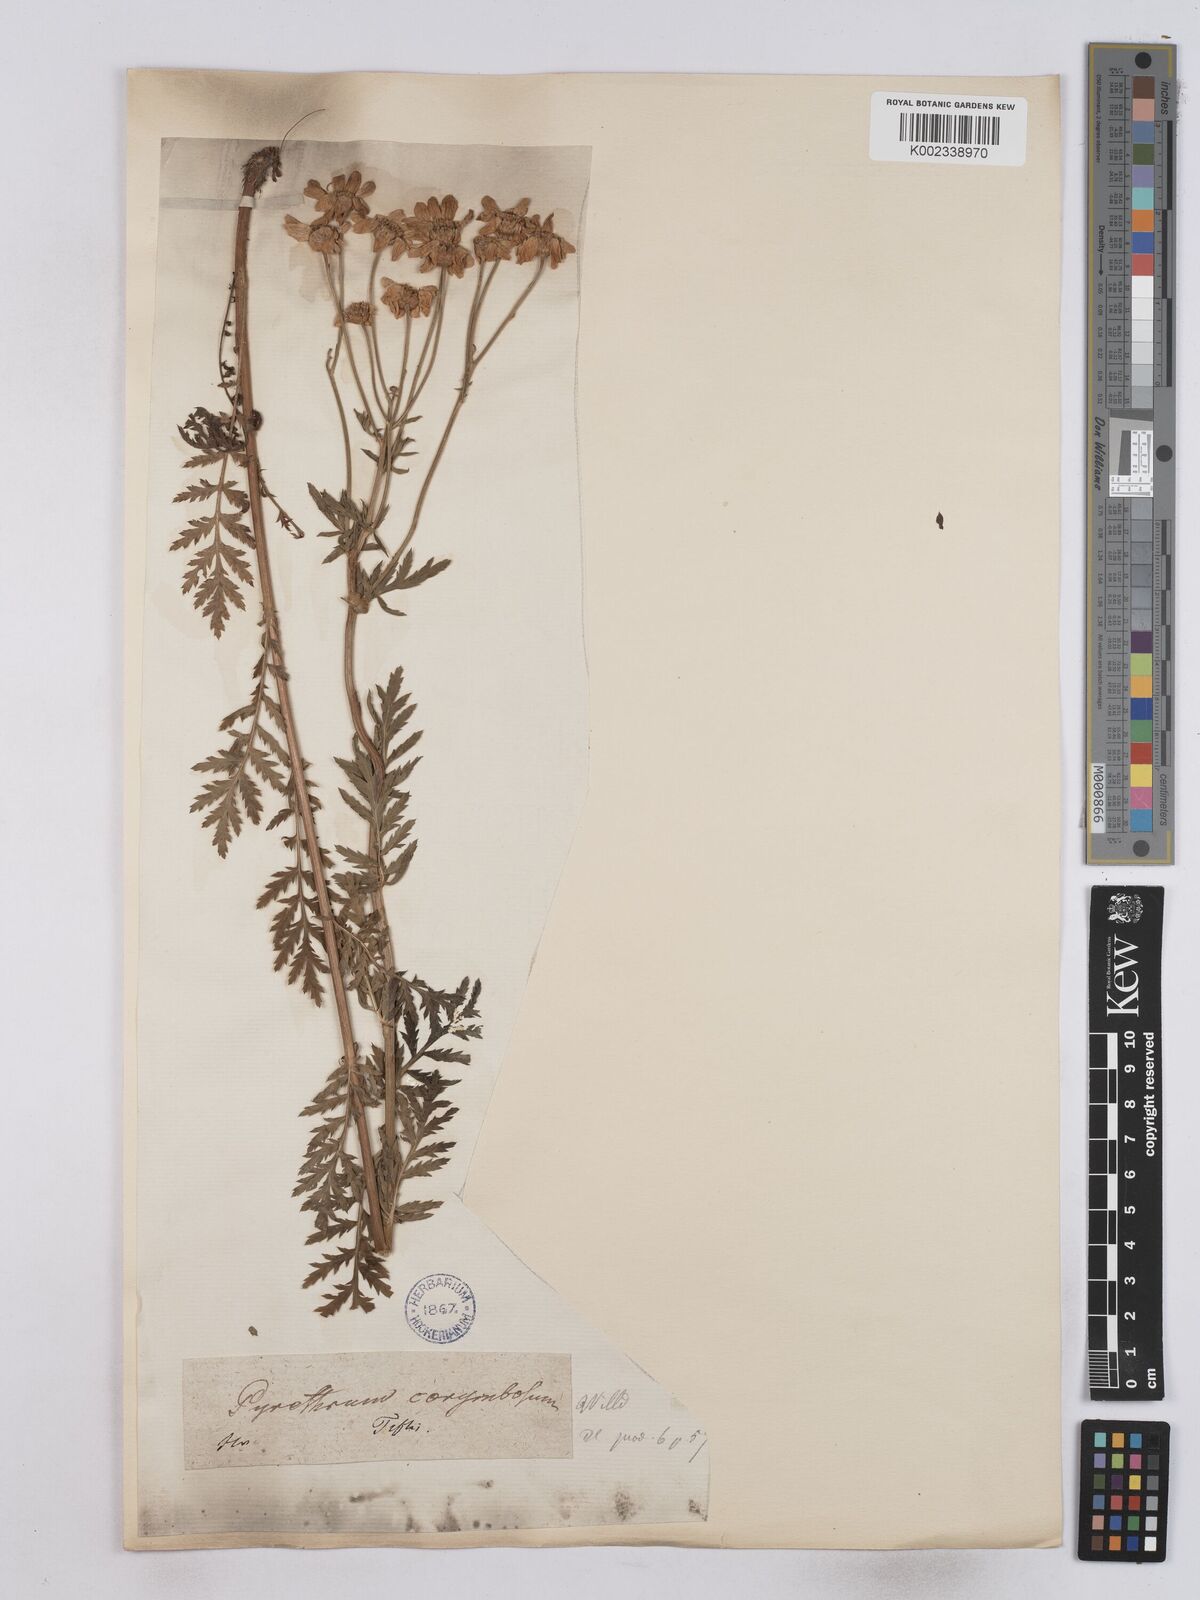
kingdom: Plantae
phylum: Tracheophyta
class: Magnoliopsida
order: Asterales
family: Asteraceae
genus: Tanacetum
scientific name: Tanacetum corymbosum
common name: Scentless feverfew
